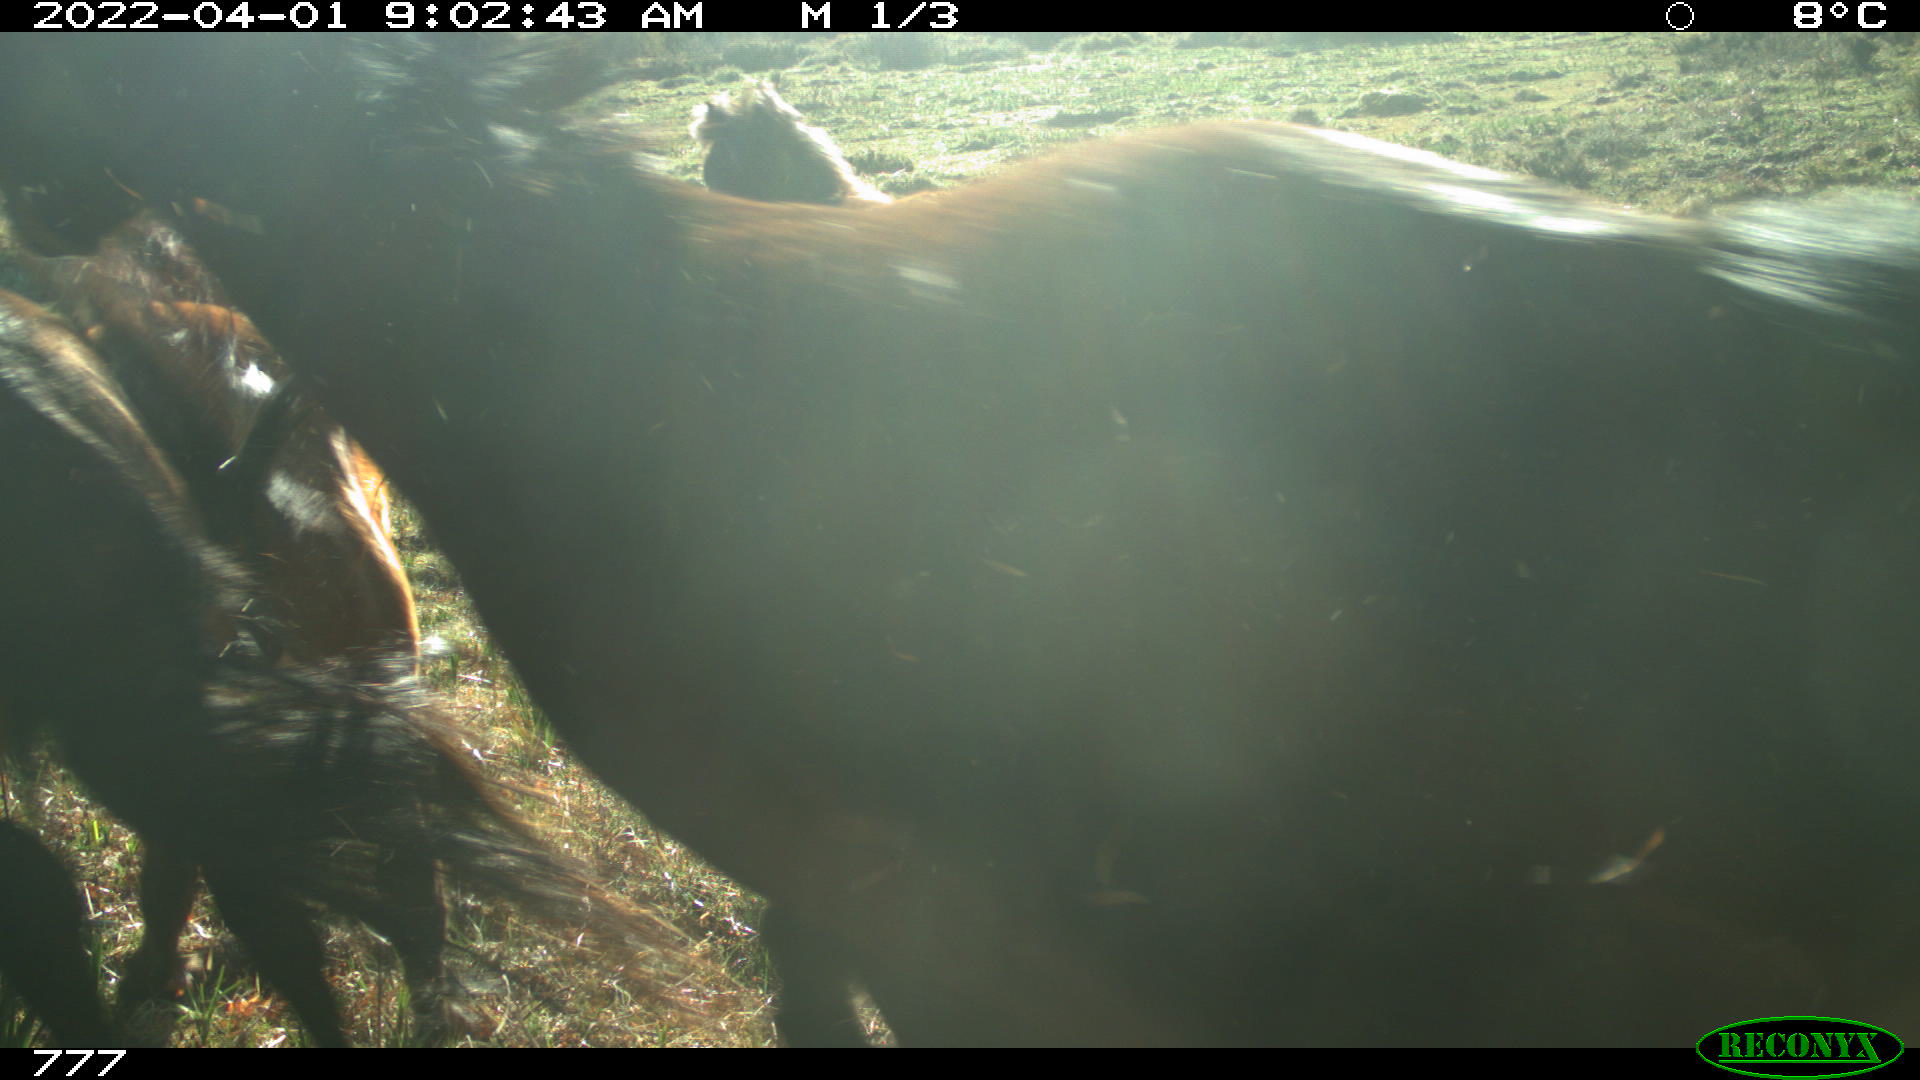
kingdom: Animalia
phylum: Chordata
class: Mammalia
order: Perissodactyla
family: Equidae
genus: Equus
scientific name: Equus caballus
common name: Horse
